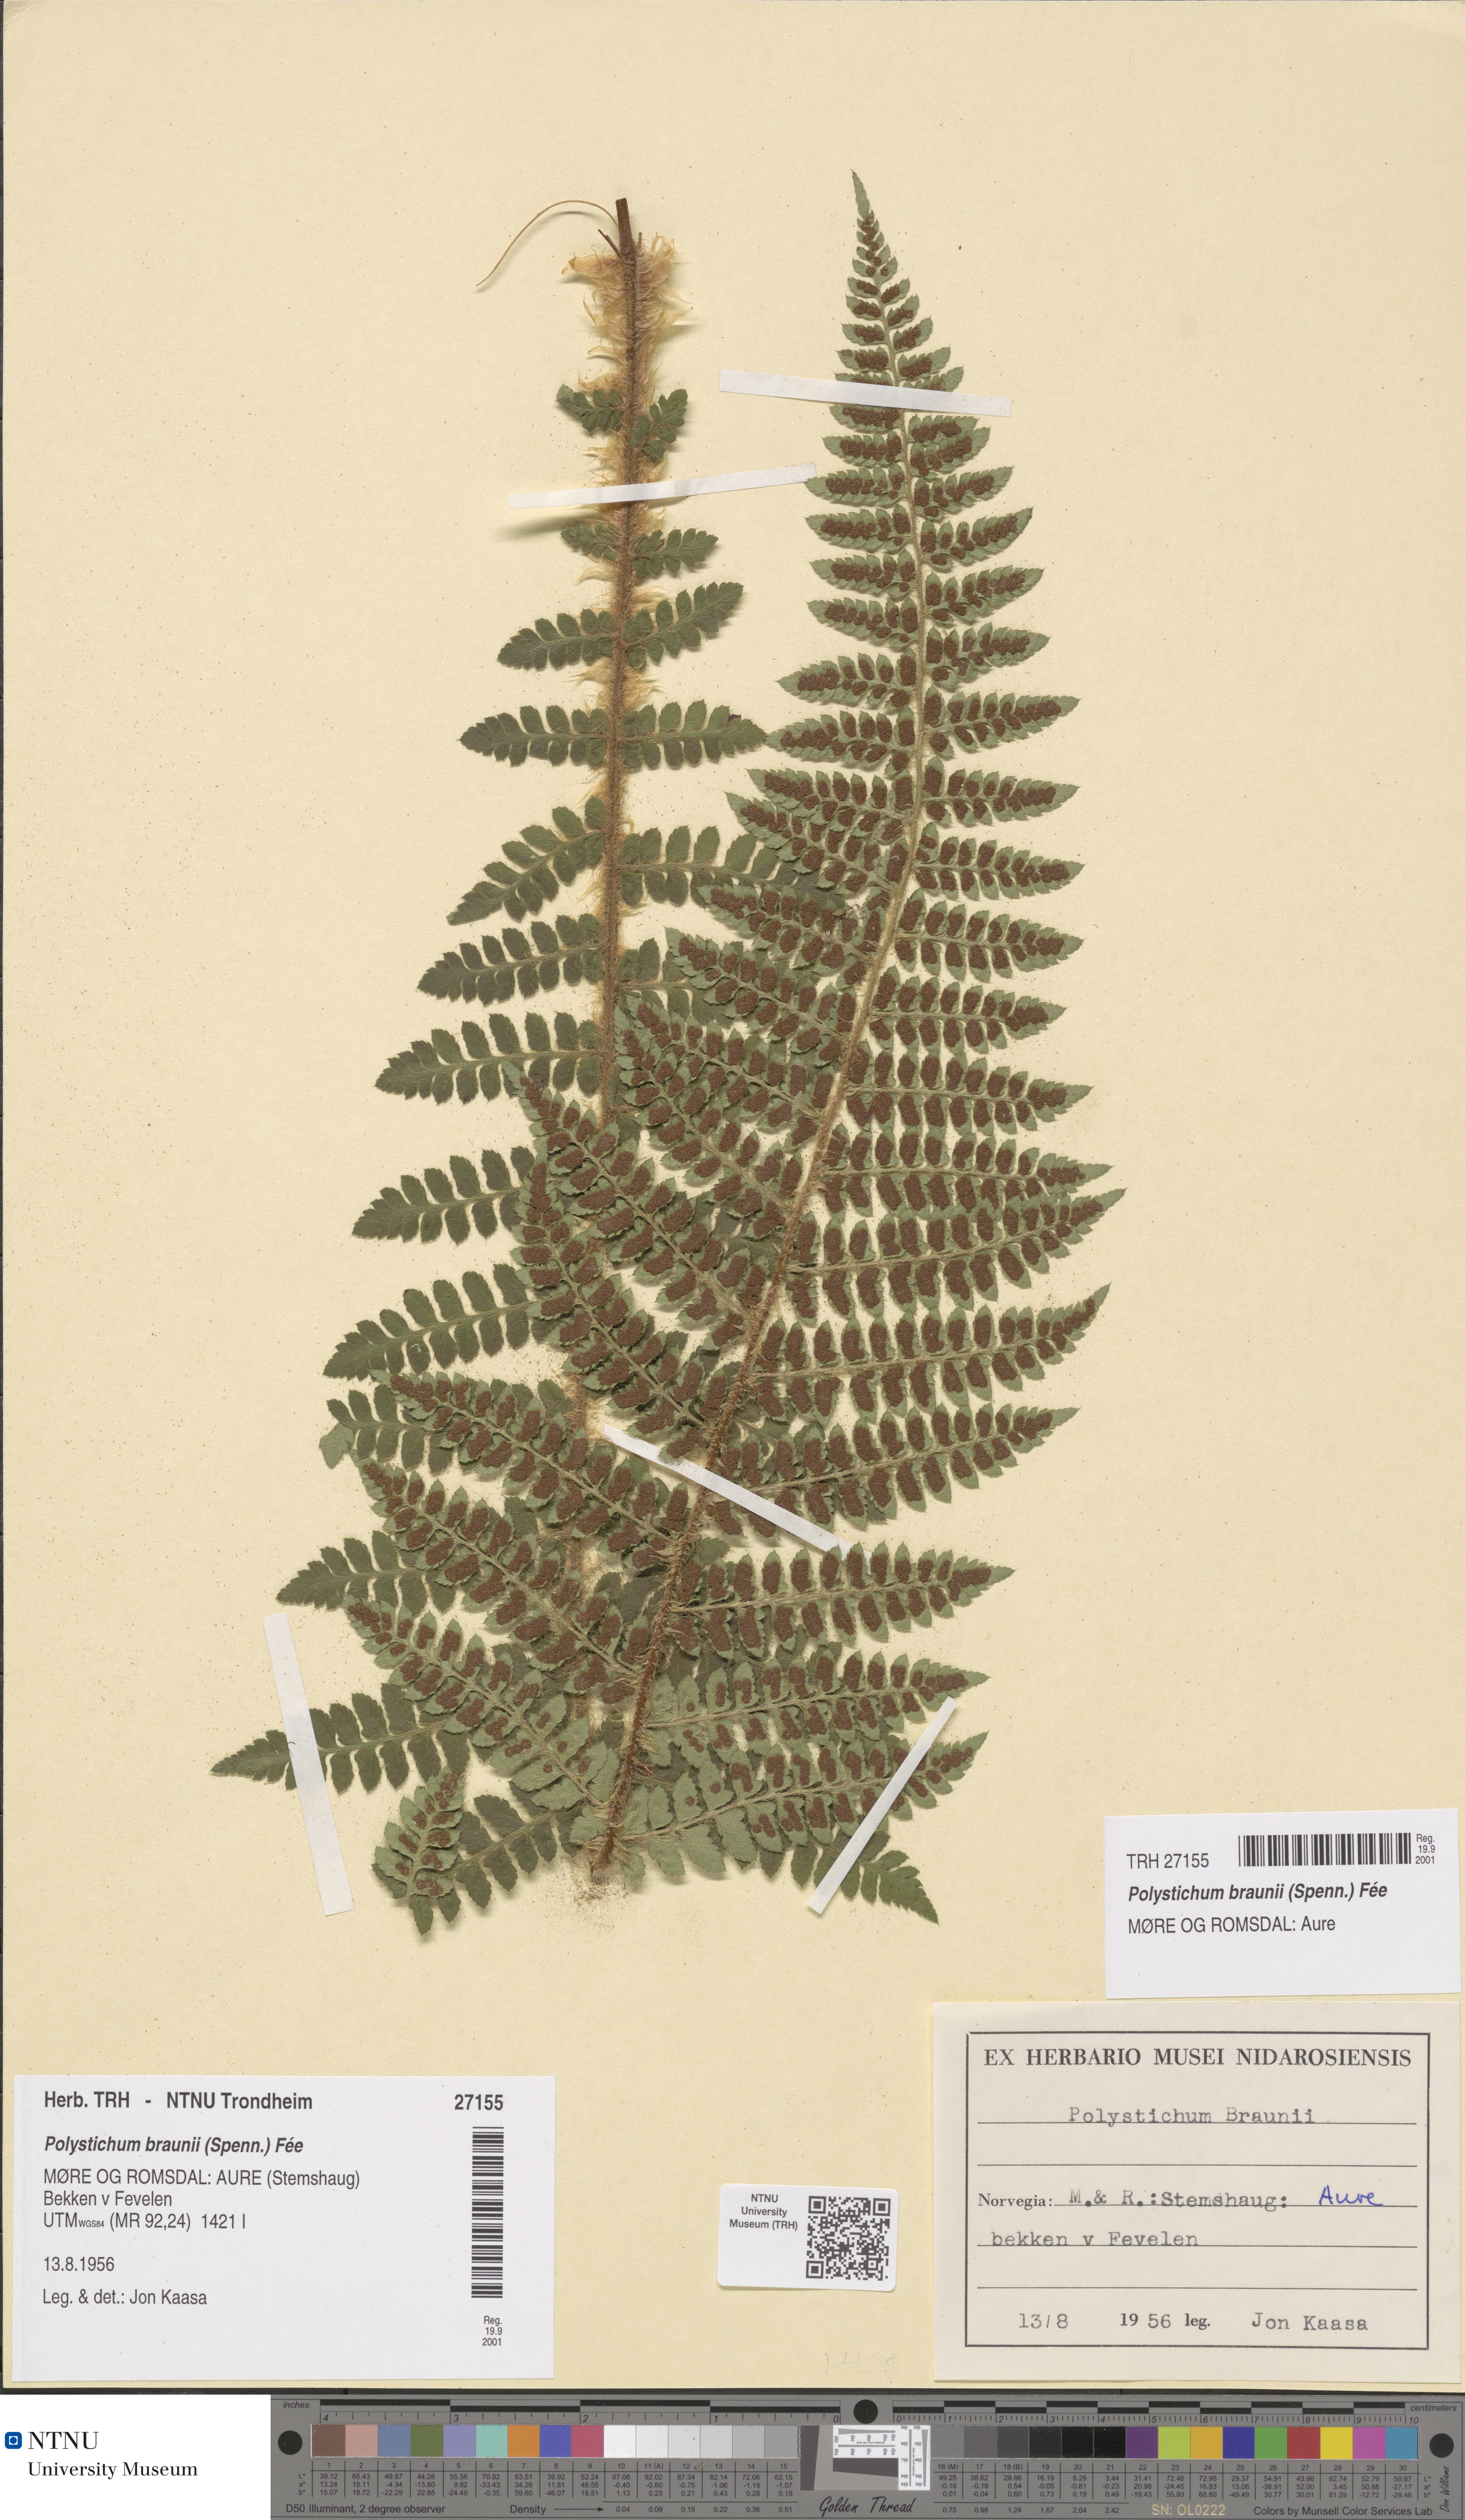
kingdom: Plantae
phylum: Tracheophyta
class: Polypodiopsida
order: Polypodiales
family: Dryopteridaceae
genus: Polystichum
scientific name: Polystichum braunii
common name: Braun's holly fern
